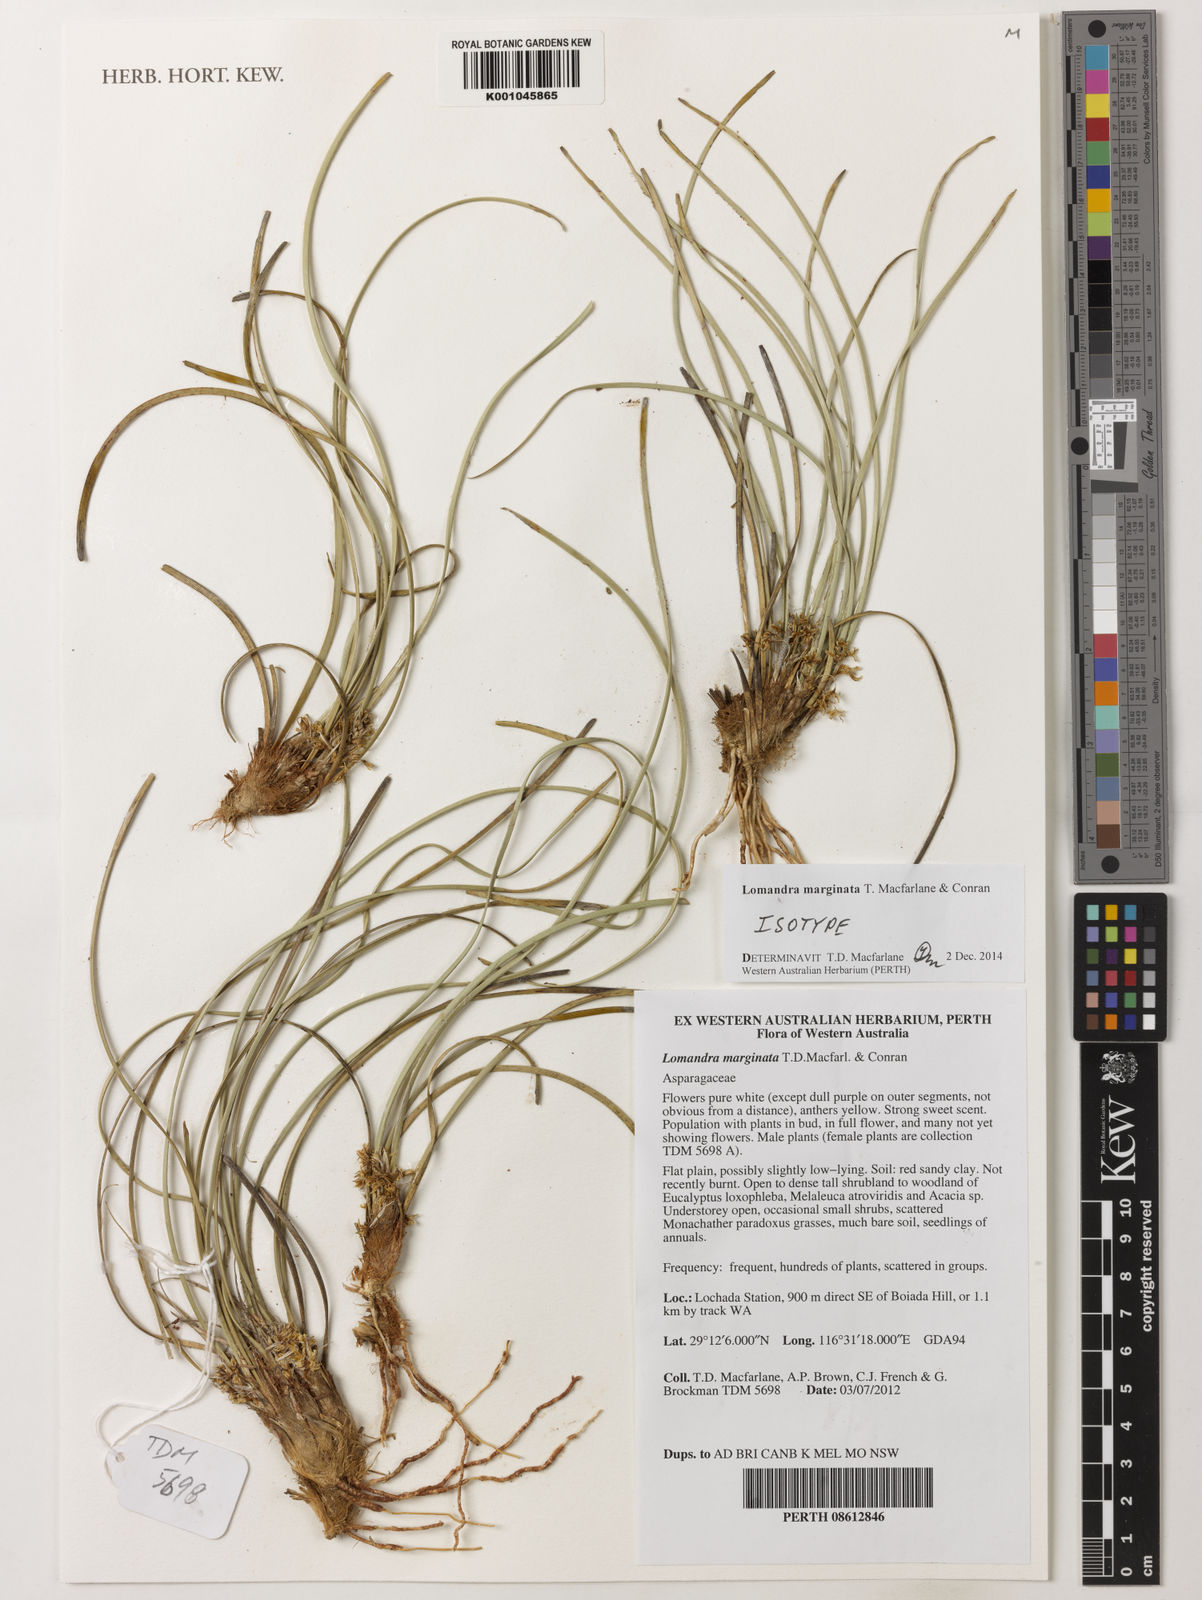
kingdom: Plantae
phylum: Tracheophyta
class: Liliopsida
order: Asparagales
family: Asparagaceae
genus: Lomandra
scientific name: Lomandra marginata
